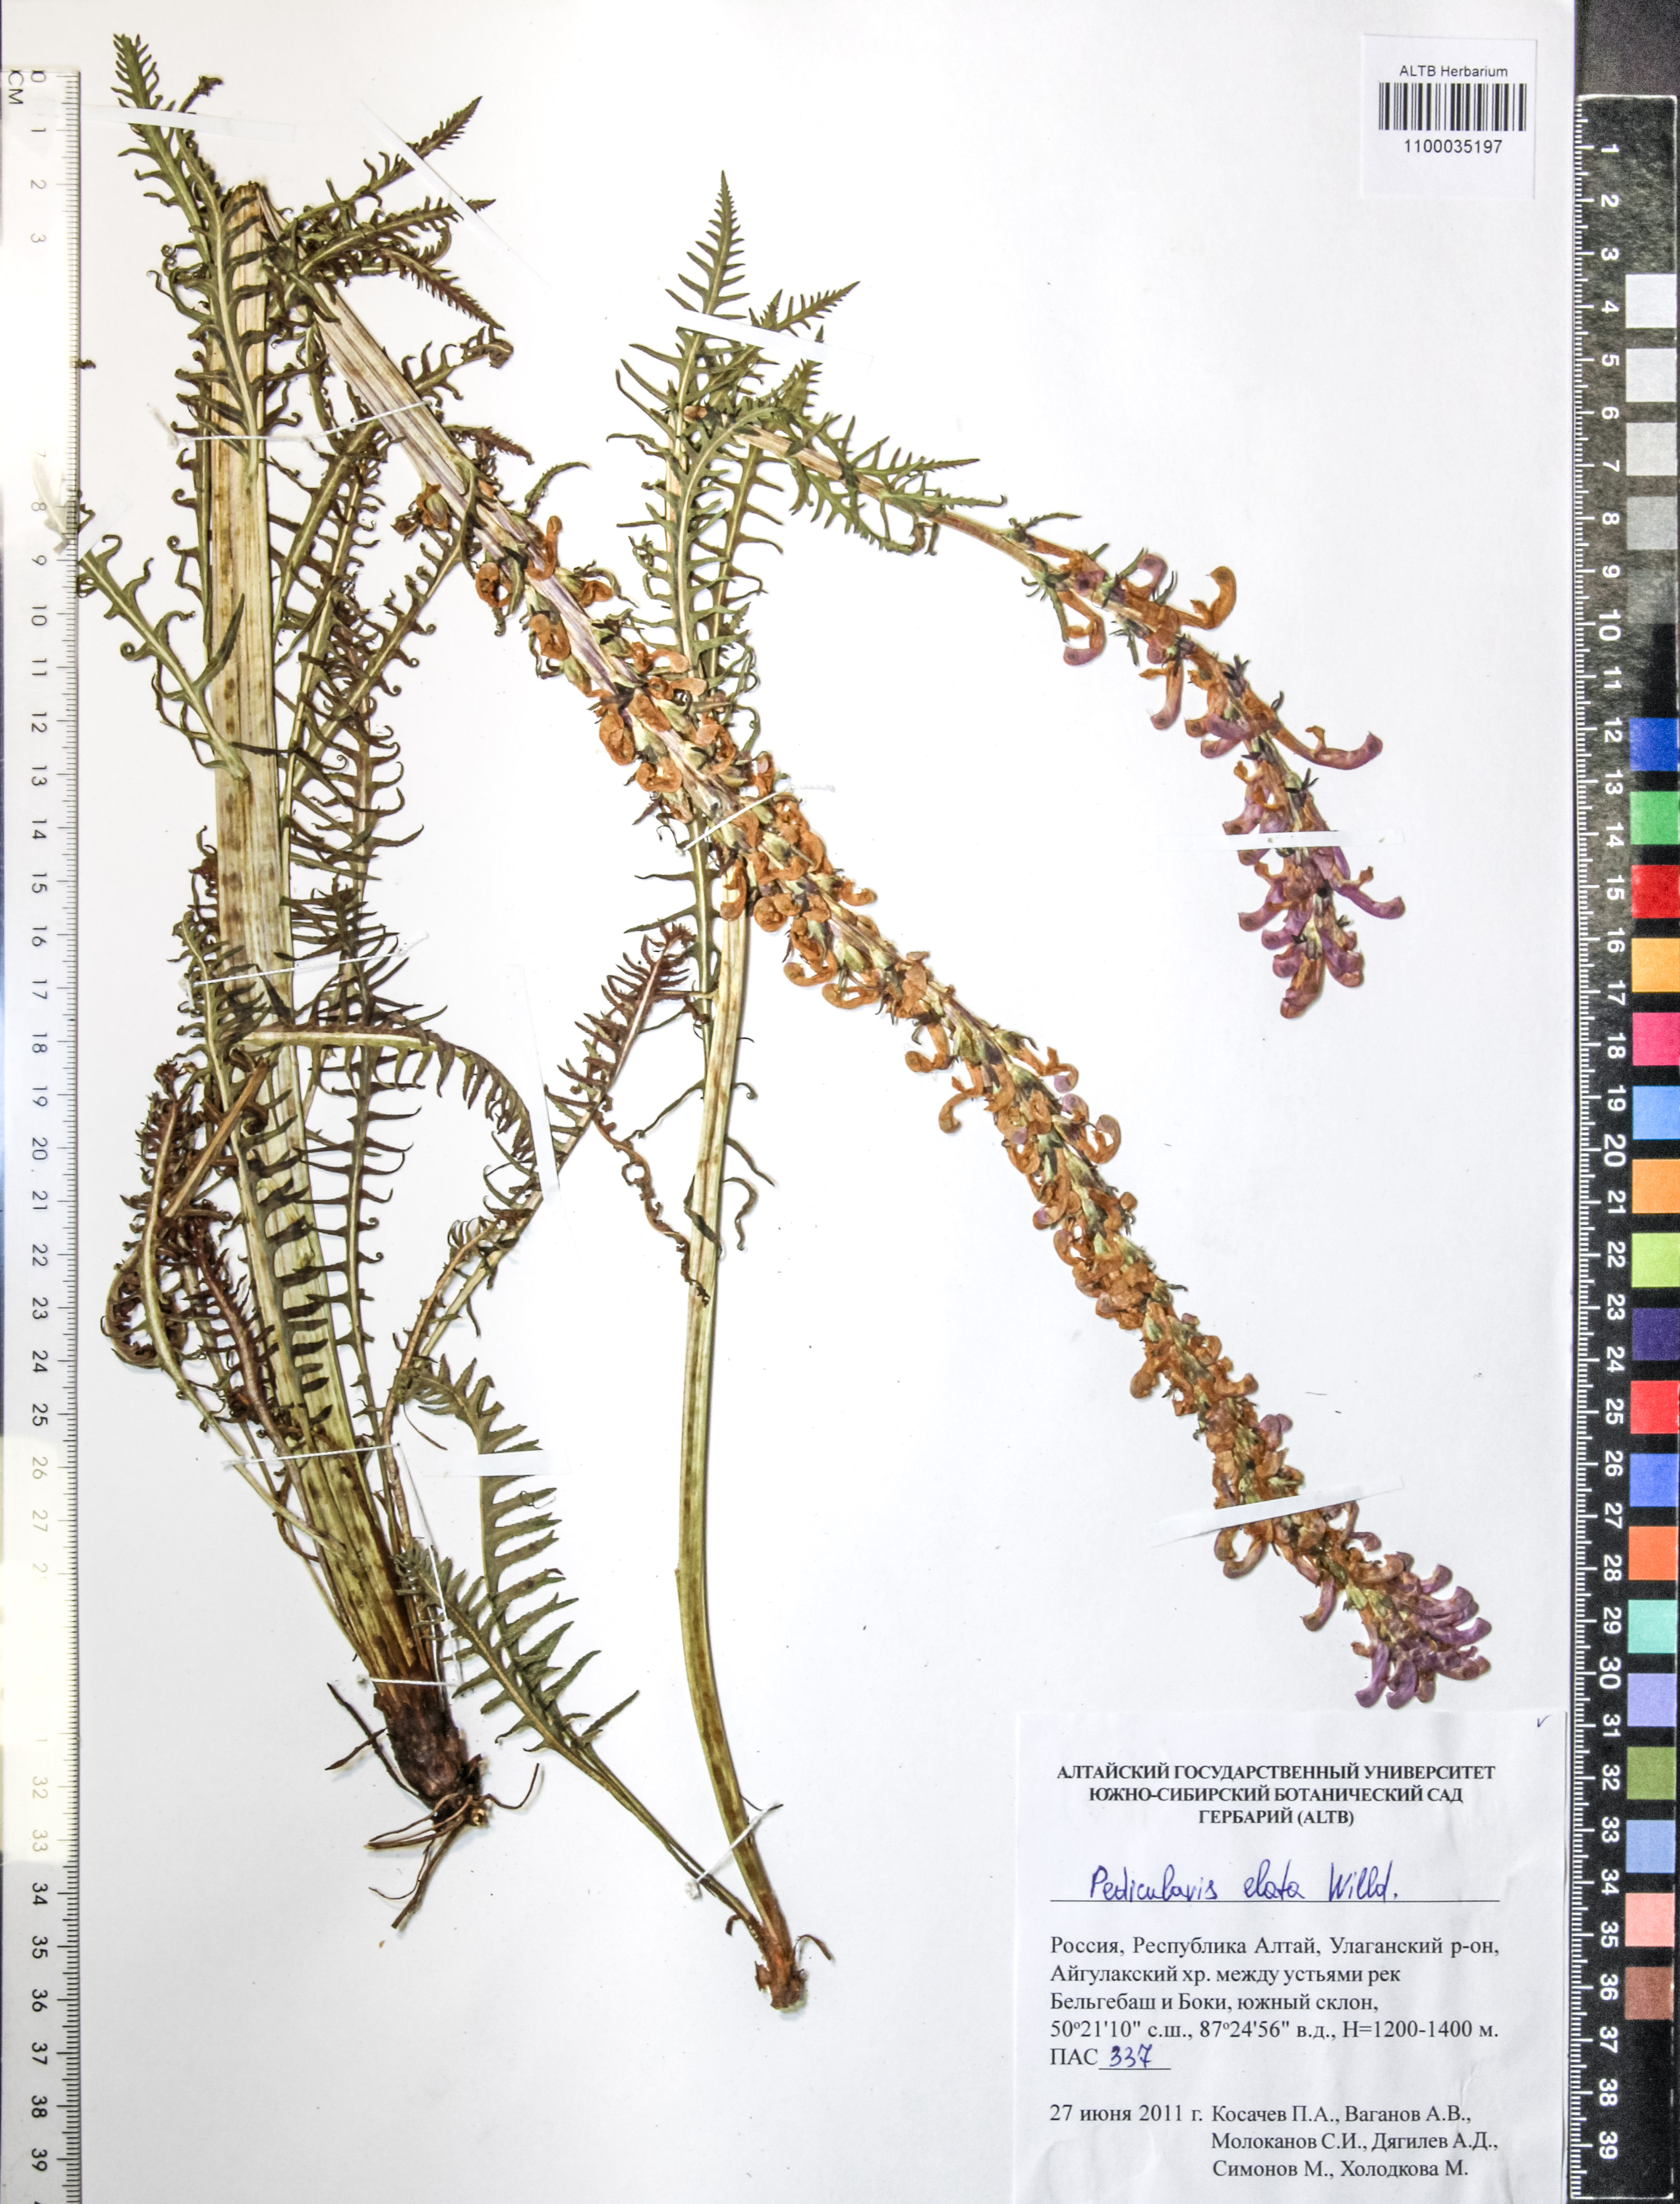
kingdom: Plantae
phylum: Tracheophyta
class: Magnoliopsida
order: Lamiales
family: Orobanchaceae
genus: Pedicularis
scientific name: Pedicularis elata
